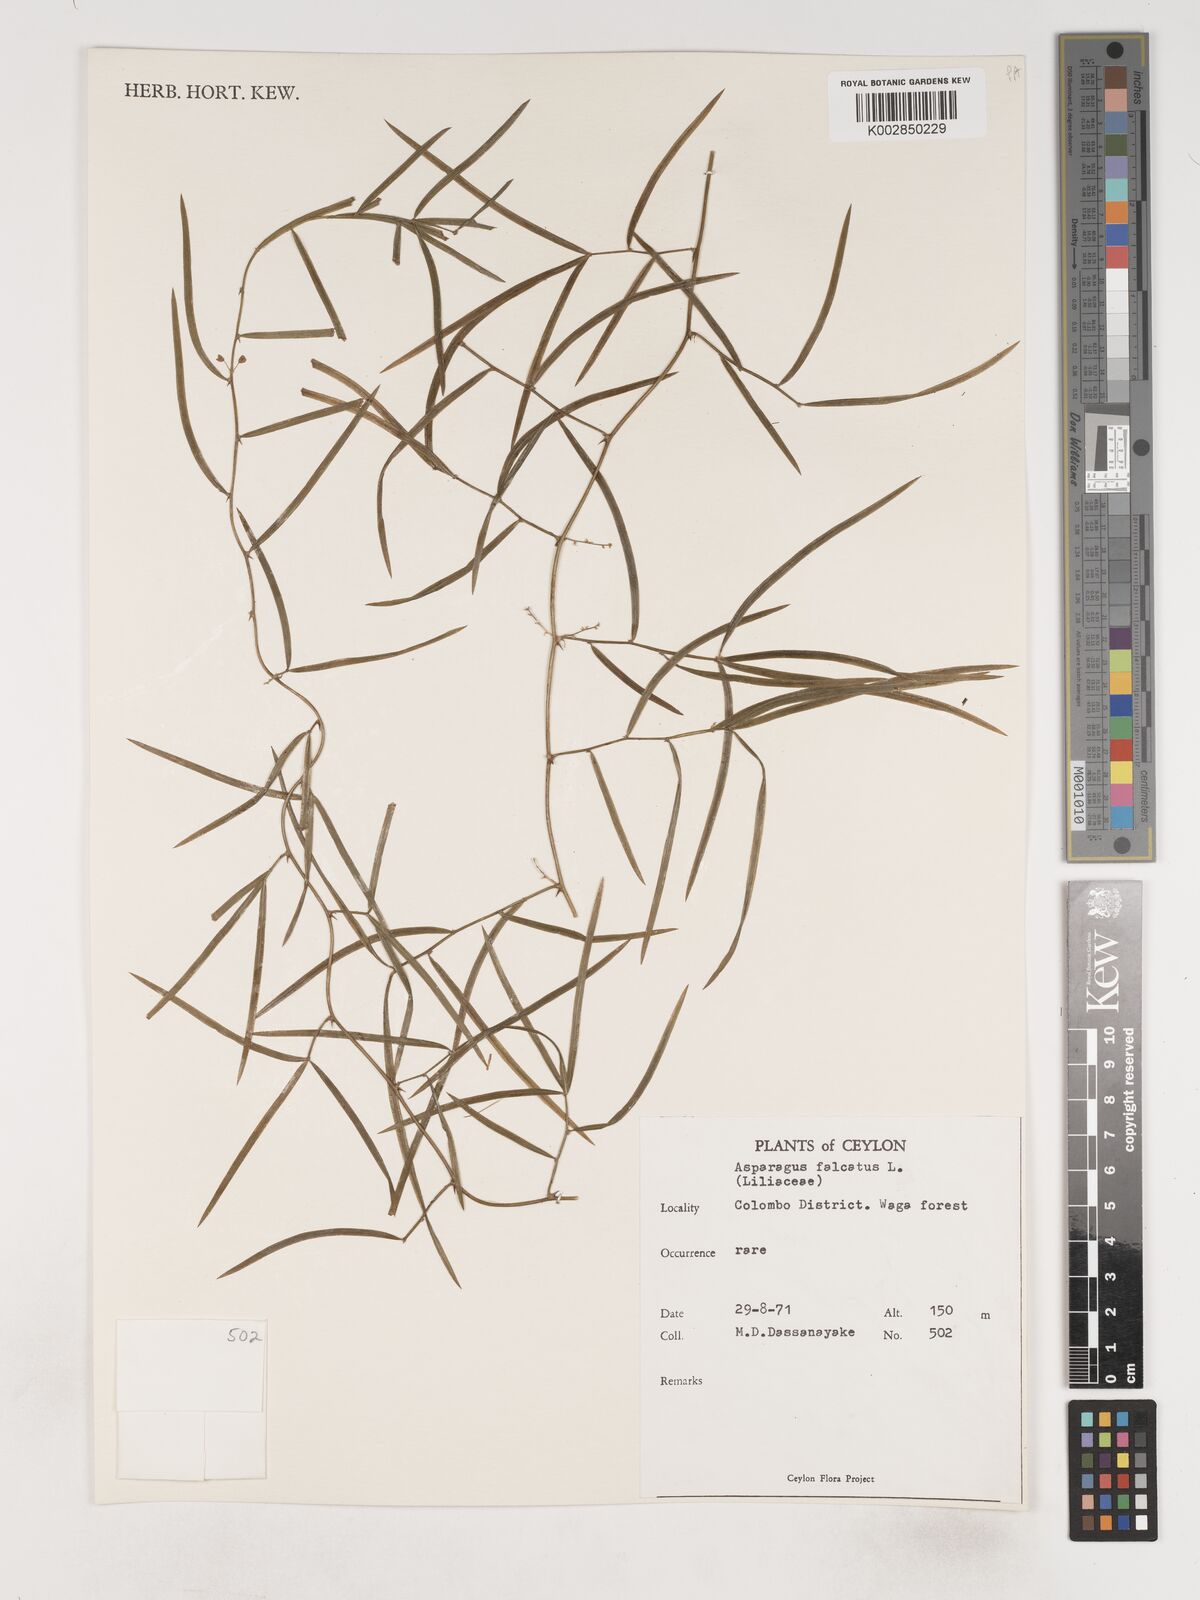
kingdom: Plantae
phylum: Tracheophyta
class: Liliopsida
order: Asparagales
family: Asparagaceae
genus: Asparagus
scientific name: Asparagus falcatus
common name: Asparagus
